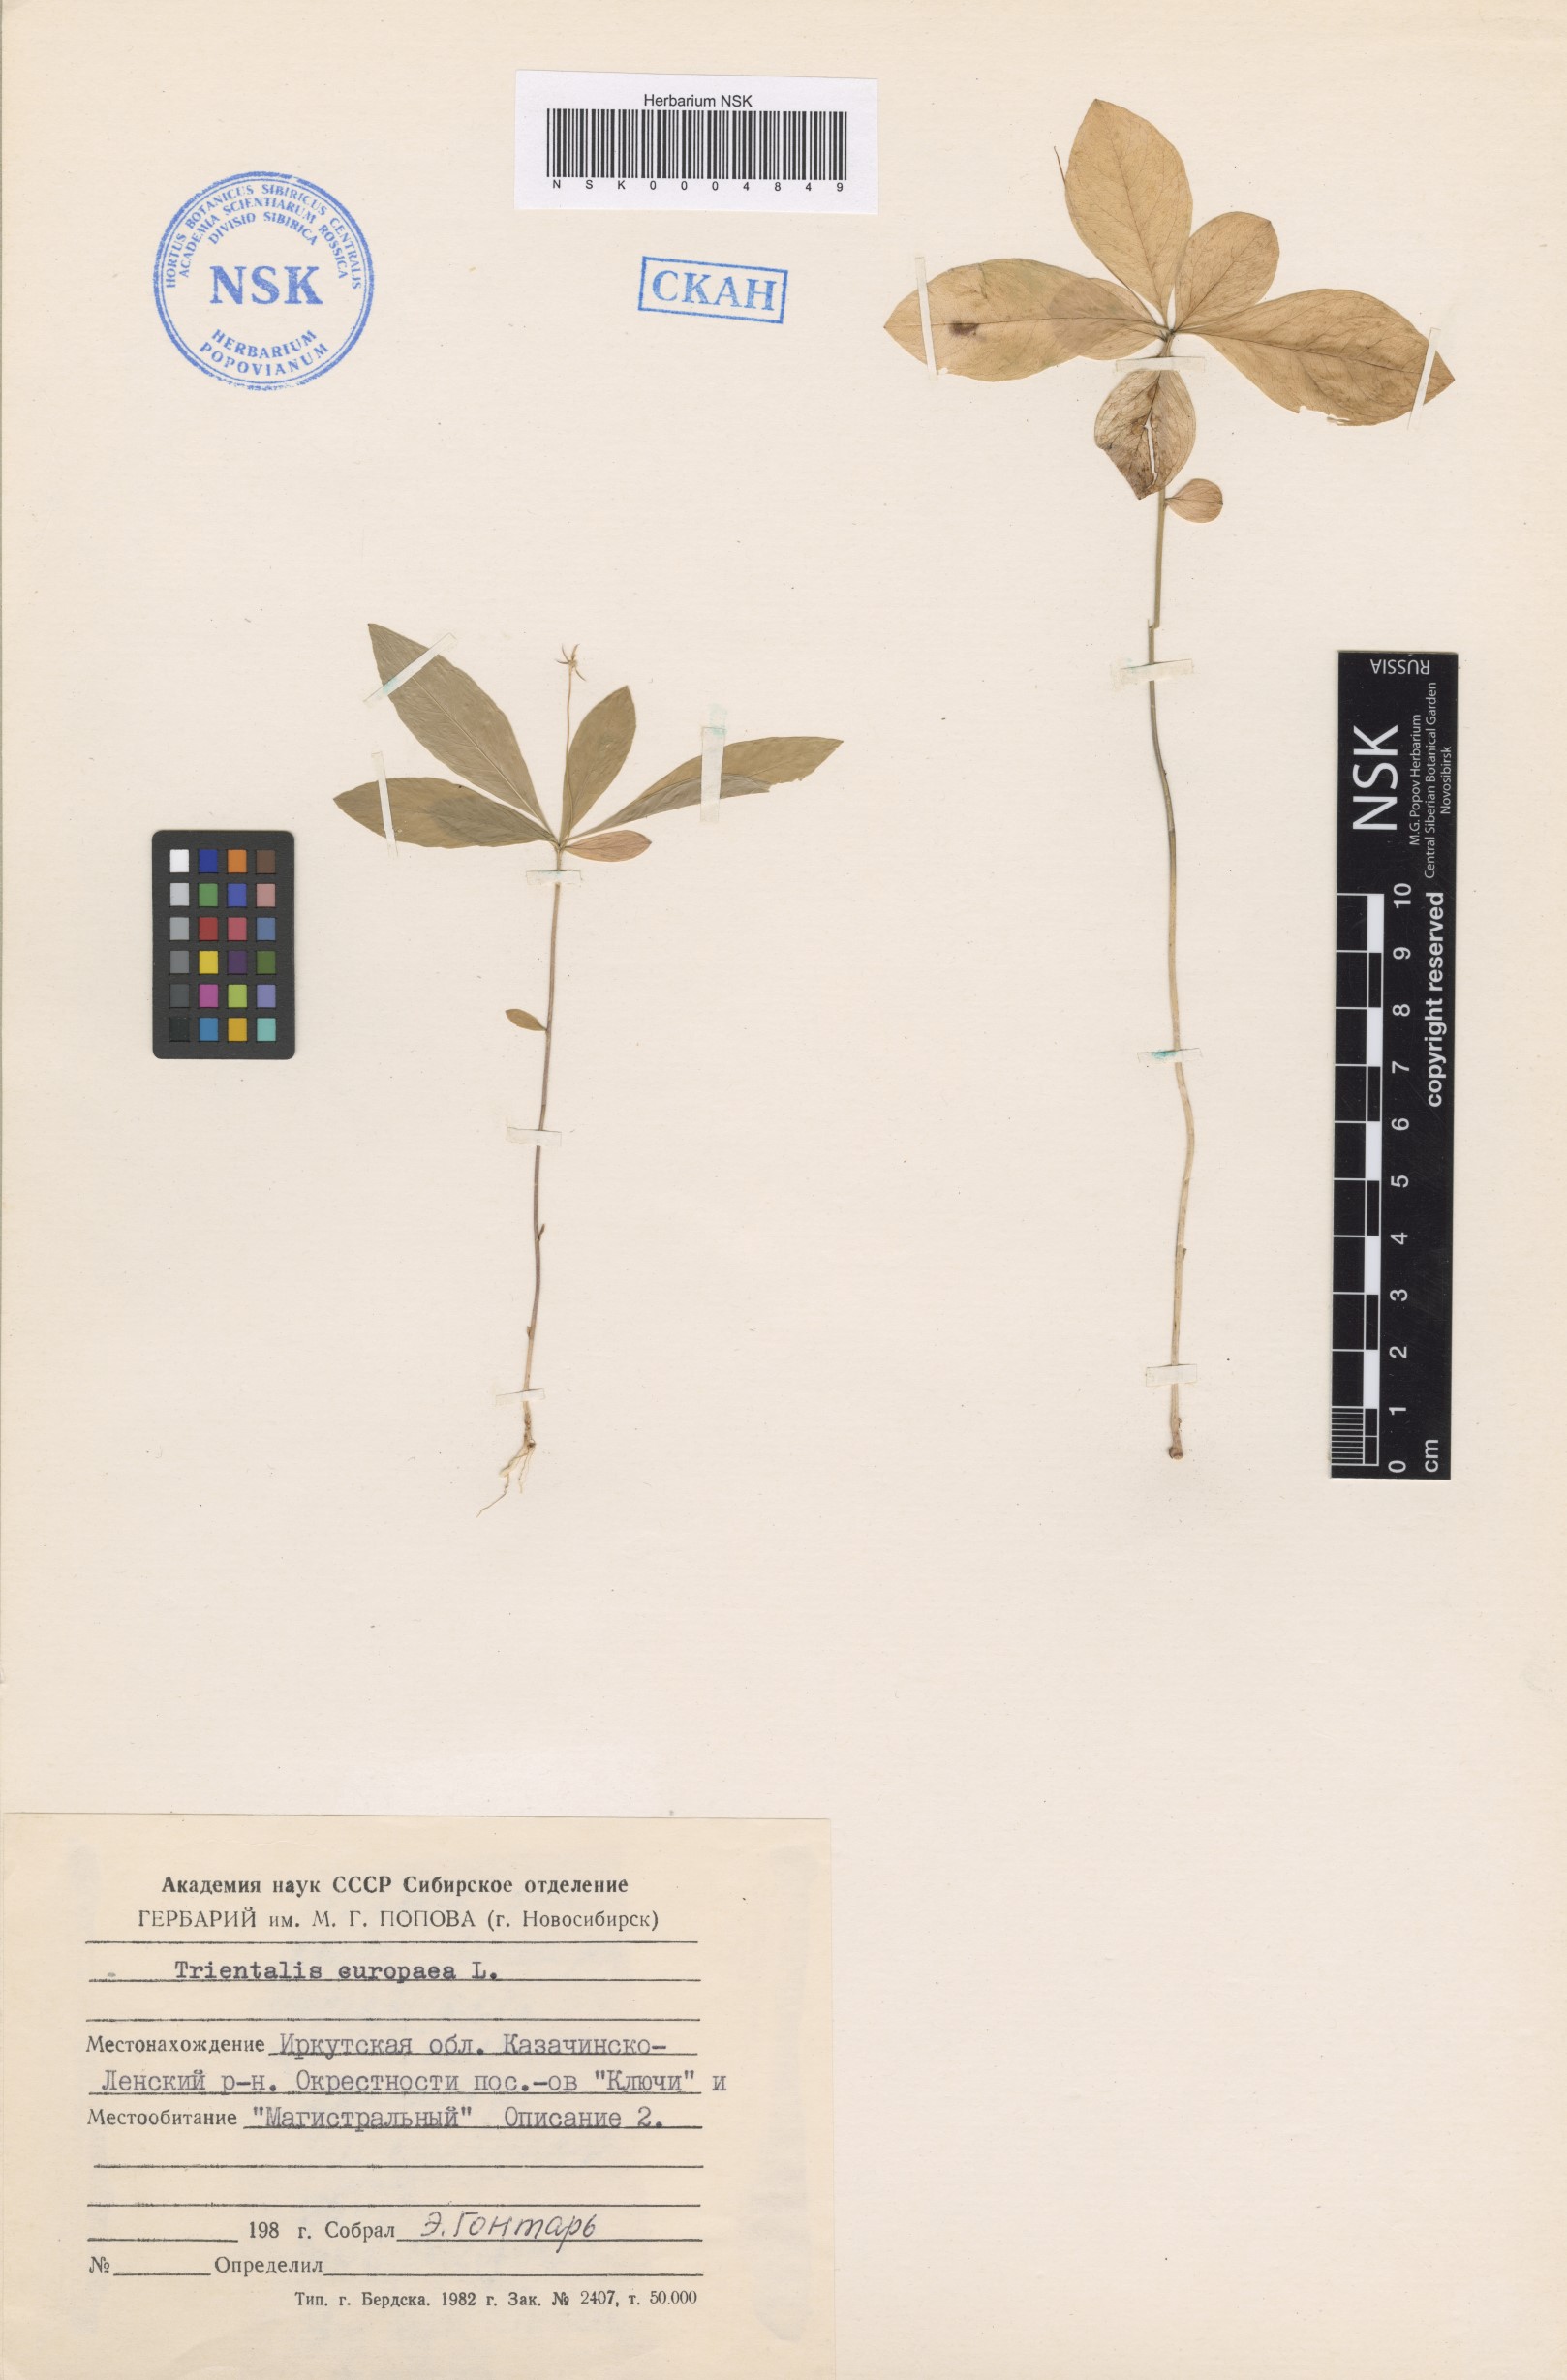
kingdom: Plantae
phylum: Tracheophyta
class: Magnoliopsida
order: Ericales
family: Primulaceae
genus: Lysimachia
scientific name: Lysimachia europaea
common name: Arctic starflower
